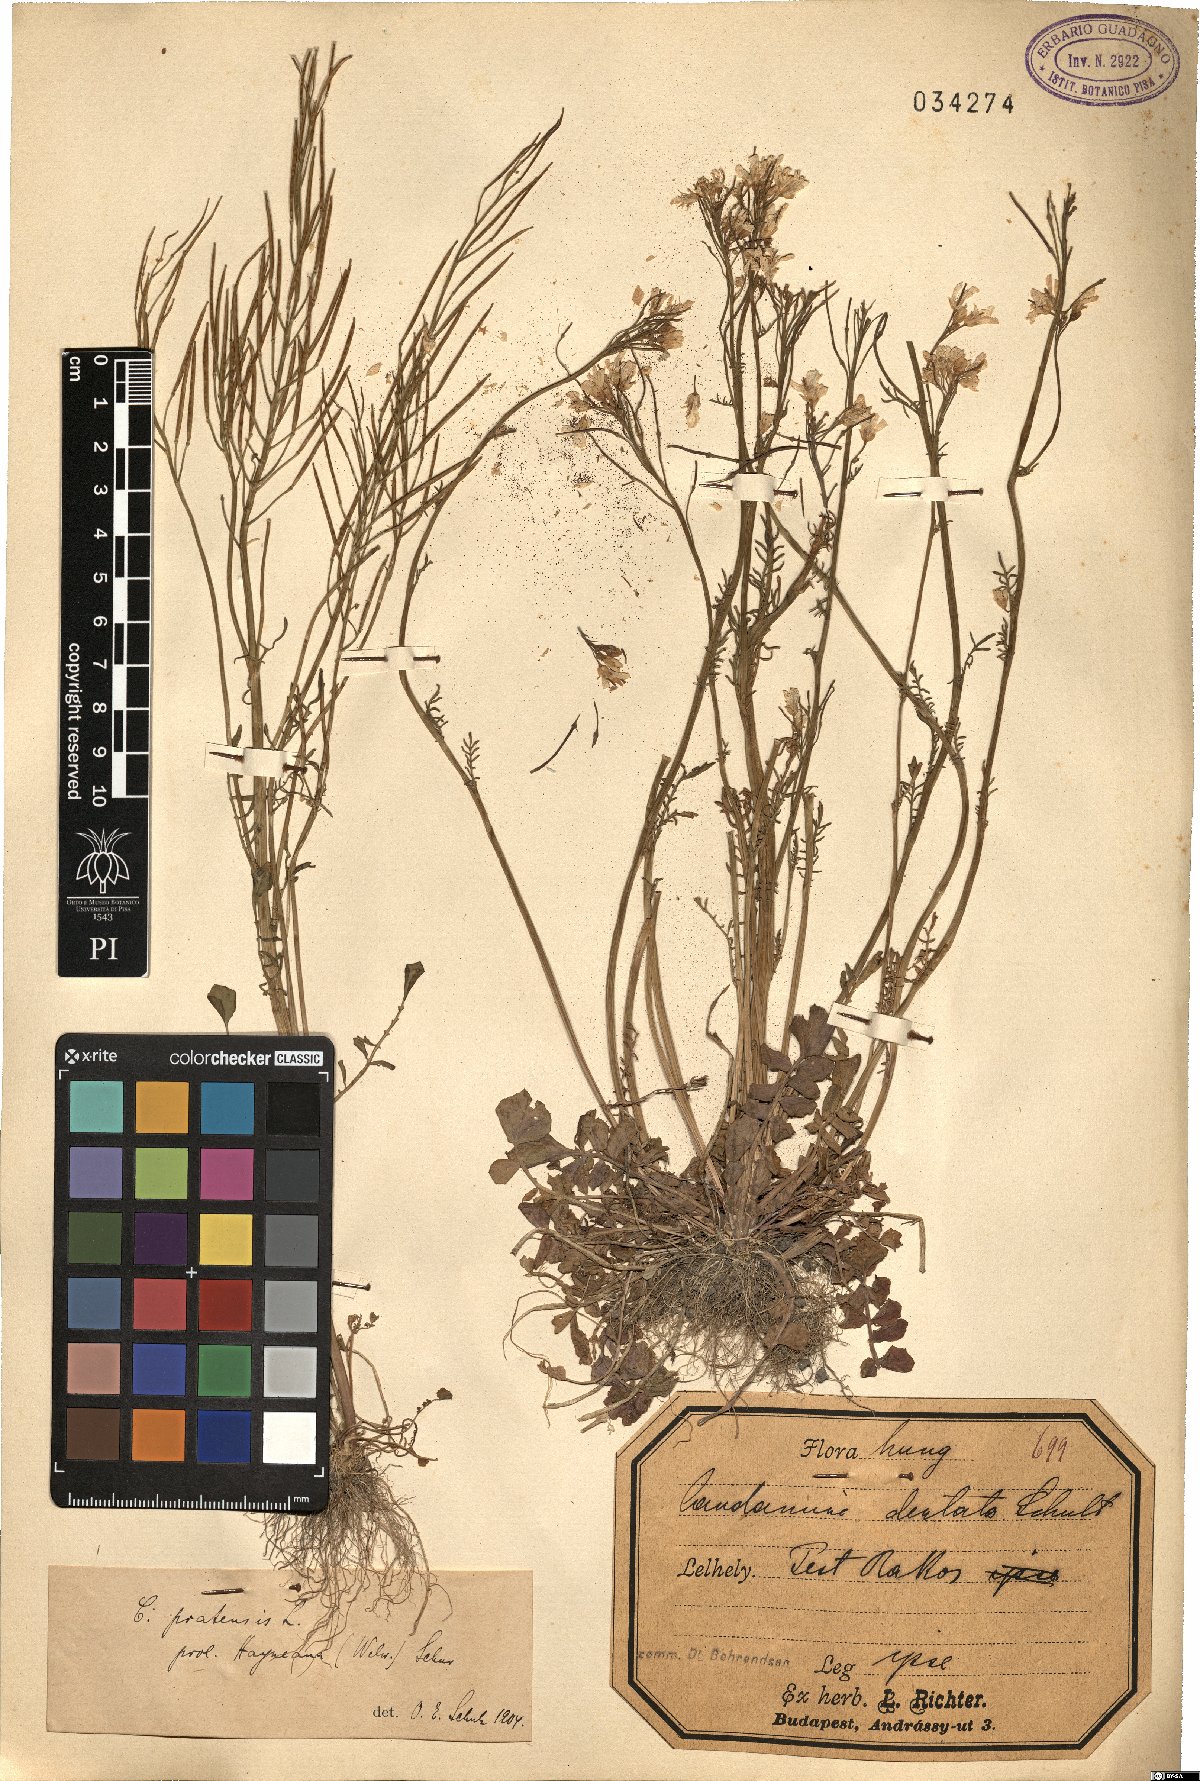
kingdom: Plantae
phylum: Tracheophyta
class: Magnoliopsida
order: Brassicales
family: Brassicaceae
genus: Cardamine
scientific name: Cardamine pratensis
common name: Cuckoo flower
